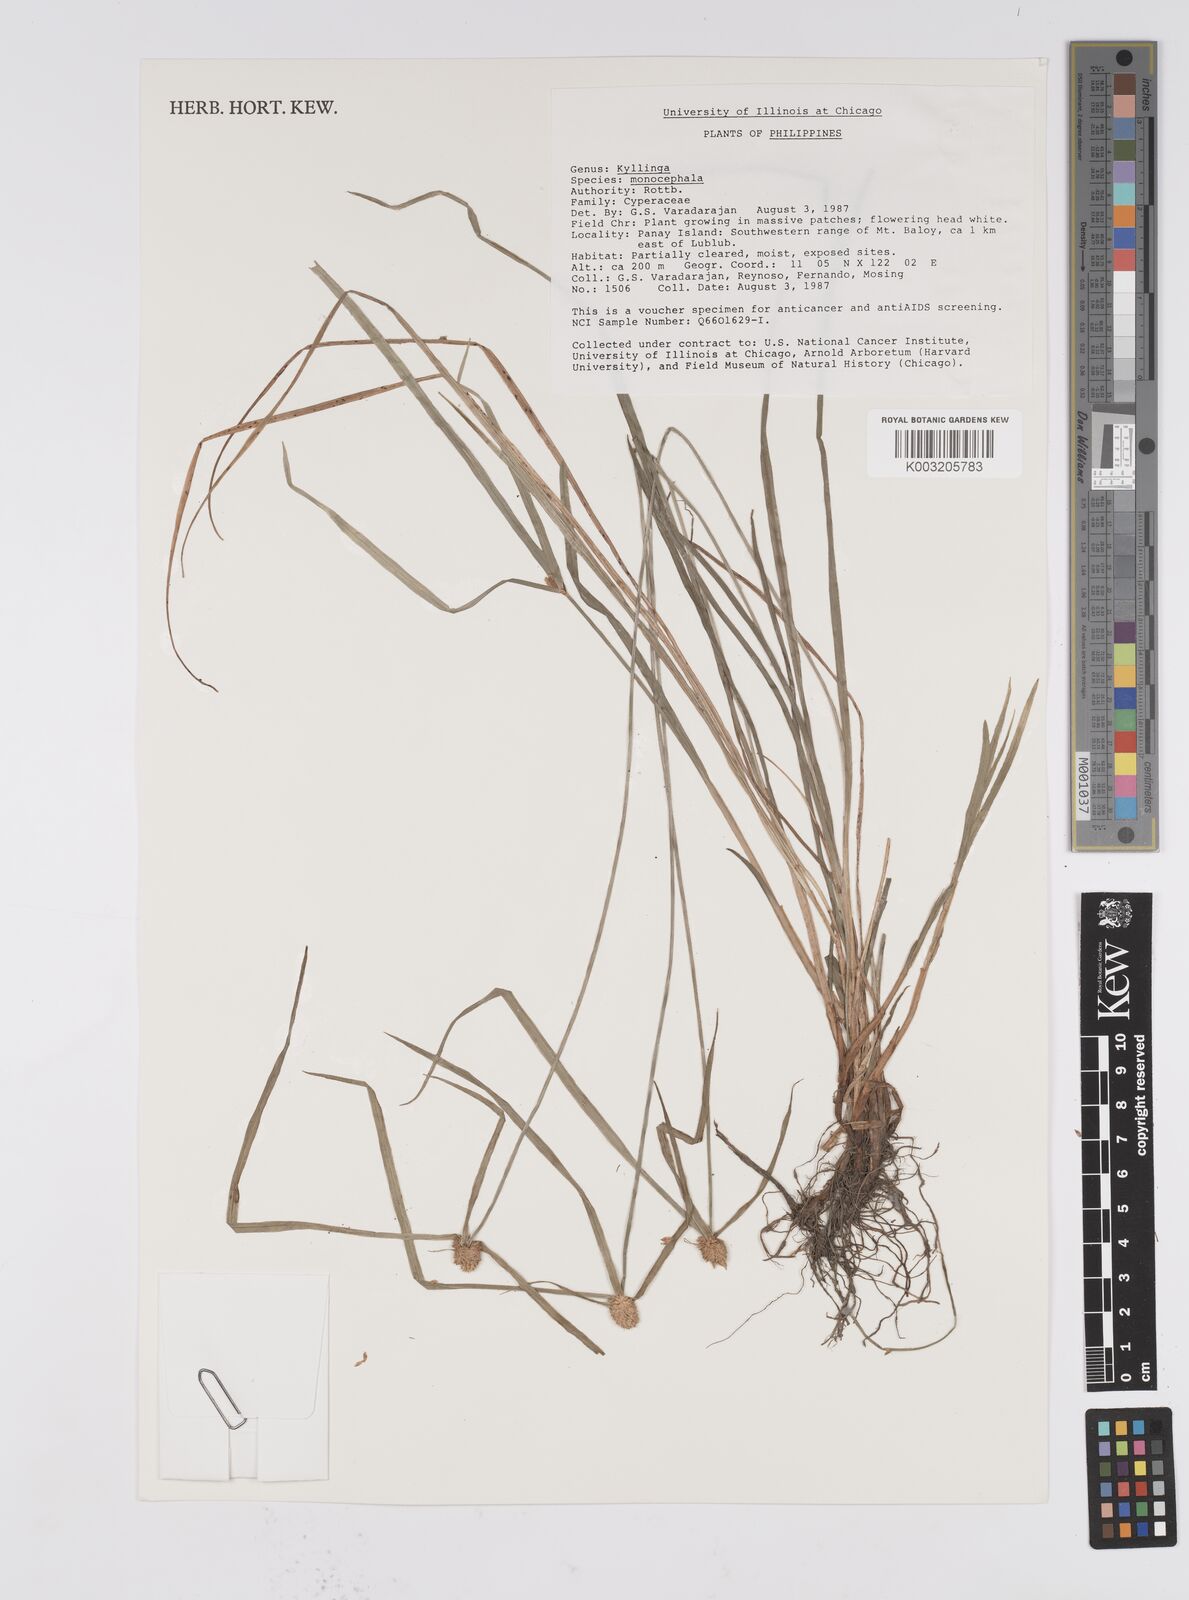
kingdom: Plantae
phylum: Tracheophyta
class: Liliopsida
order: Poales
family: Cyperaceae
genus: Cyperus
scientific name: Cyperus nemoralis
